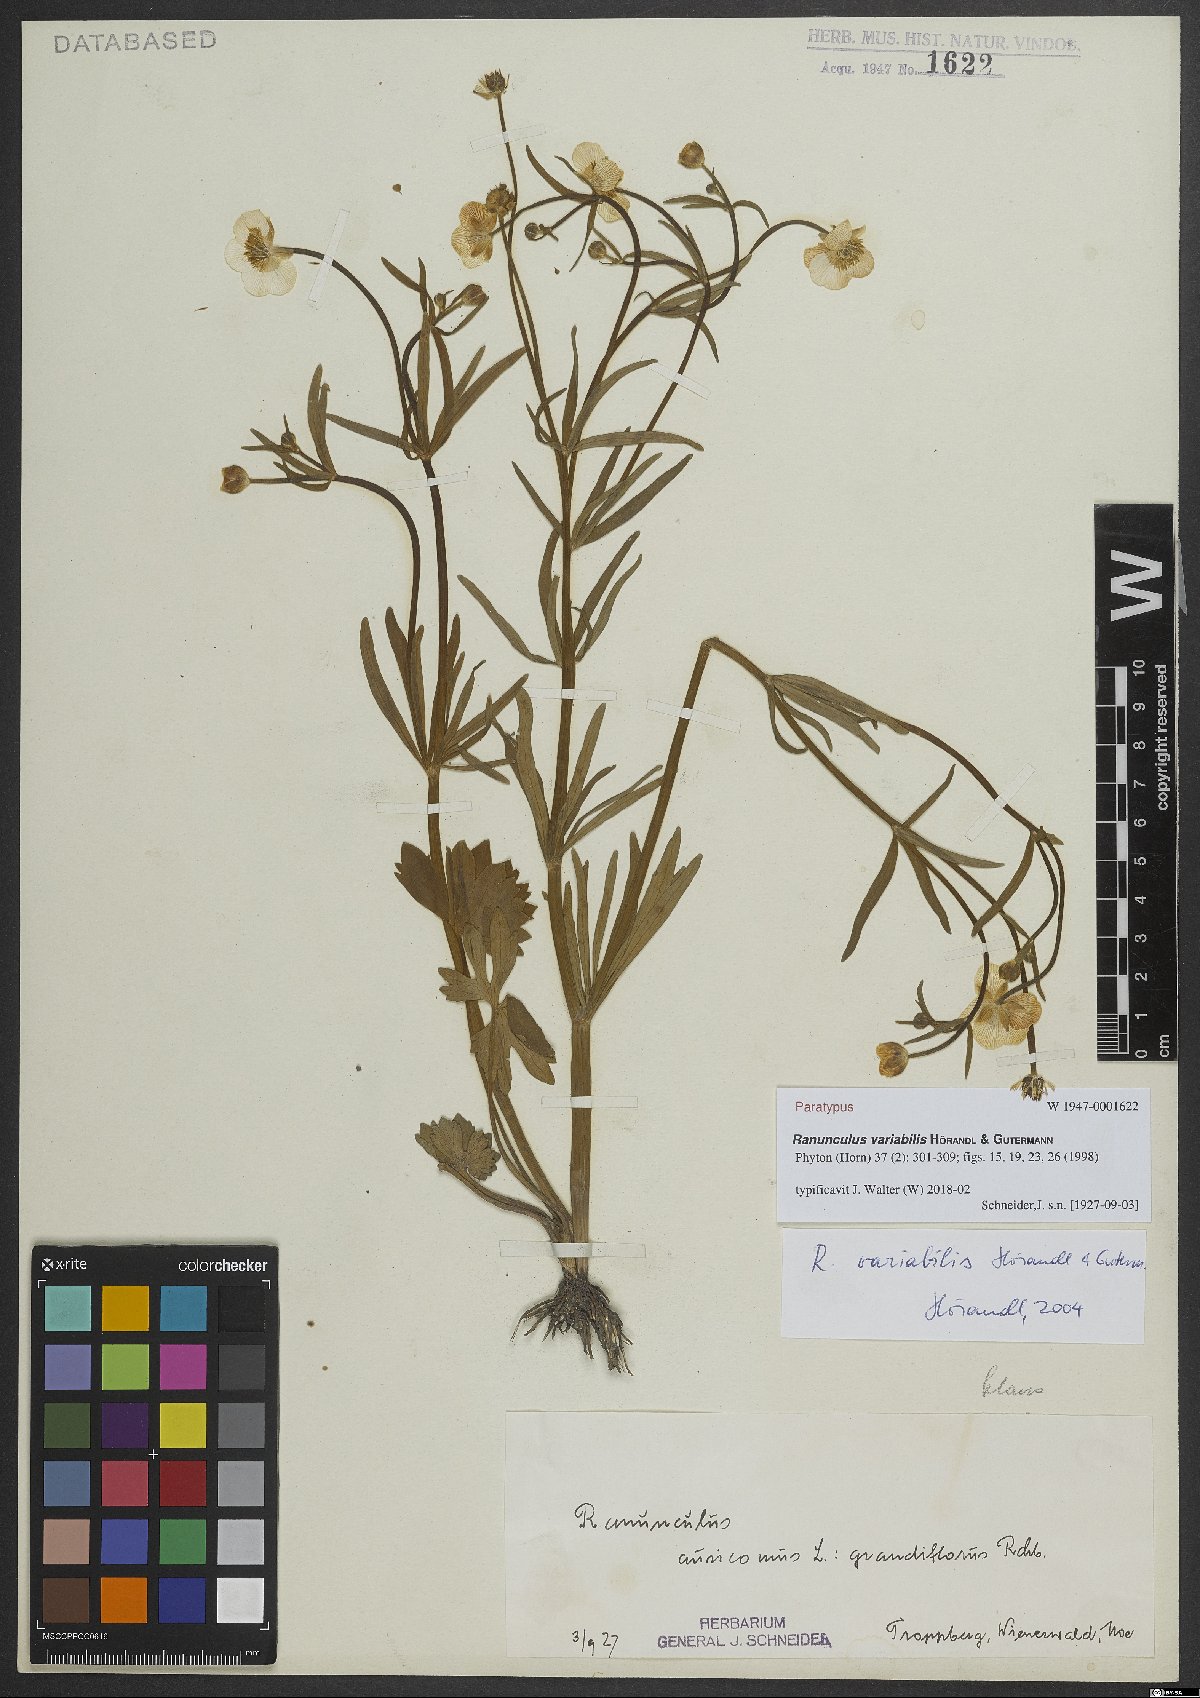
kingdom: Plantae
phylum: Tracheophyta
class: Magnoliopsida
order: Ranunculales
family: Ranunculaceae
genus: Ranunculus
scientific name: Ranunculus variabilis
